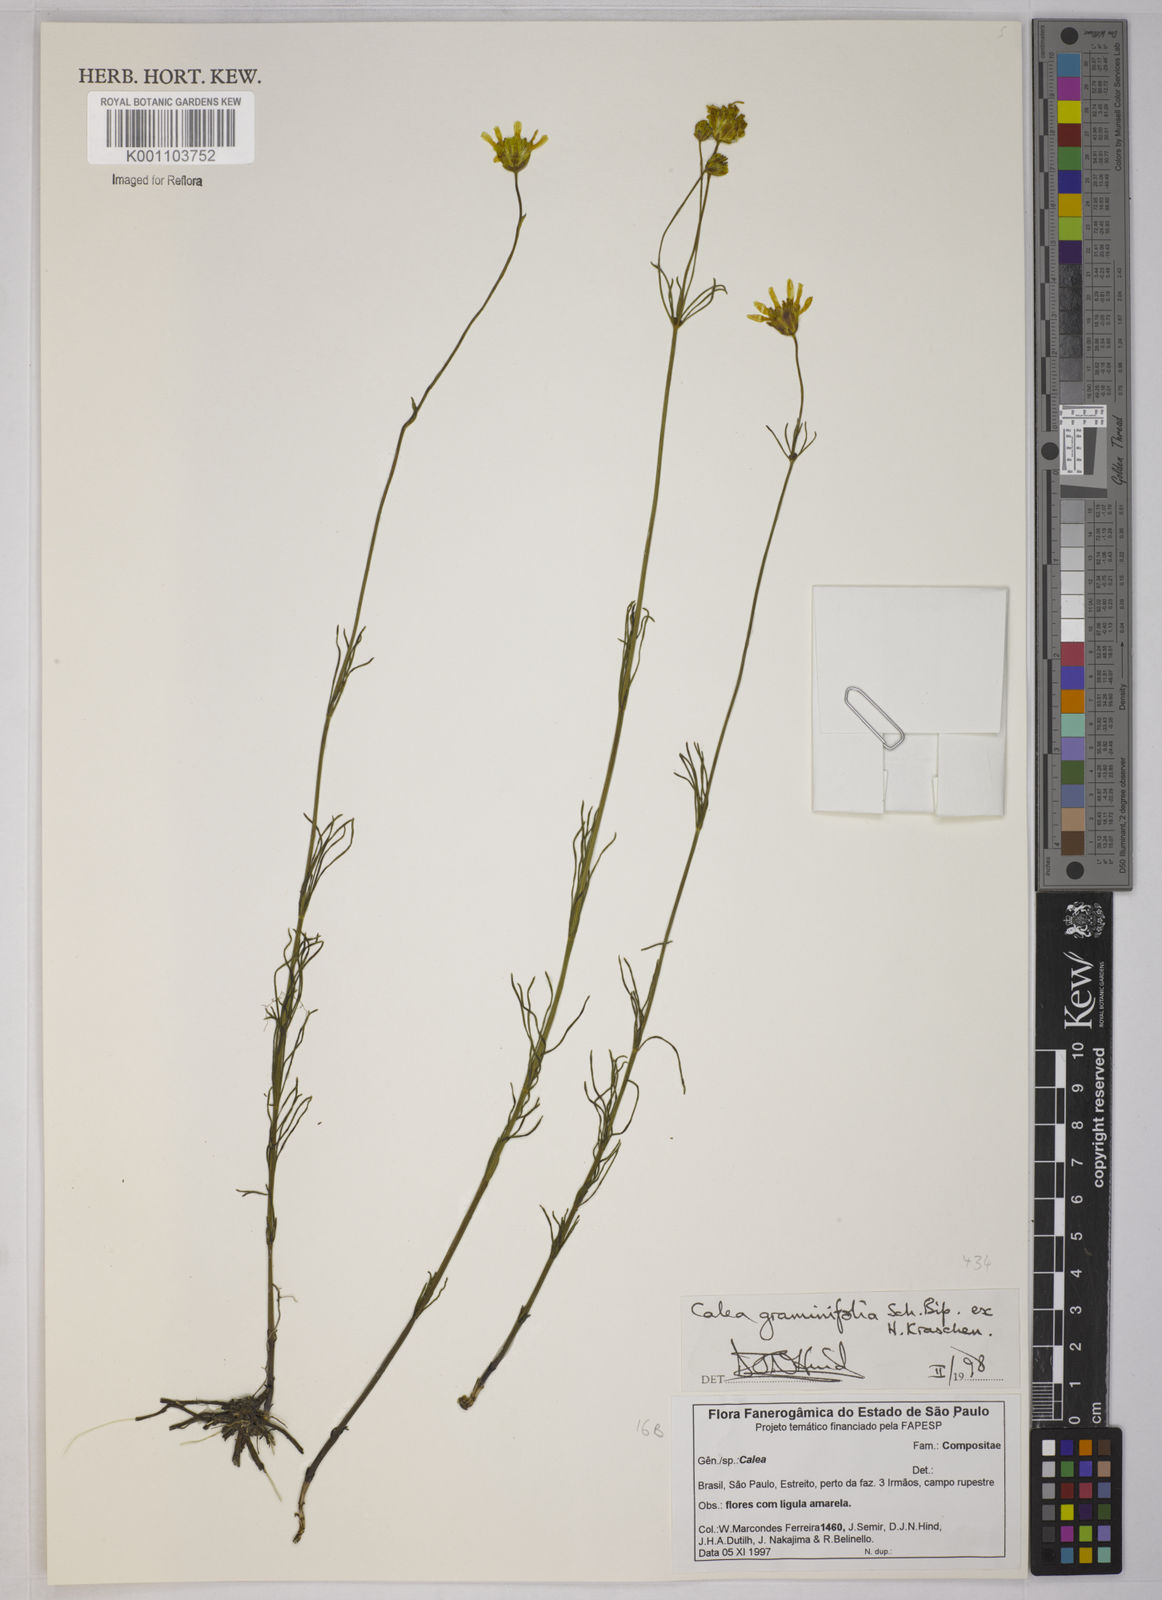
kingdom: Plantae
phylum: Tracheophyta
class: Magnoliopsida
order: Asterales
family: Asteraceae
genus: Calea
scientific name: Calea graminifolia
